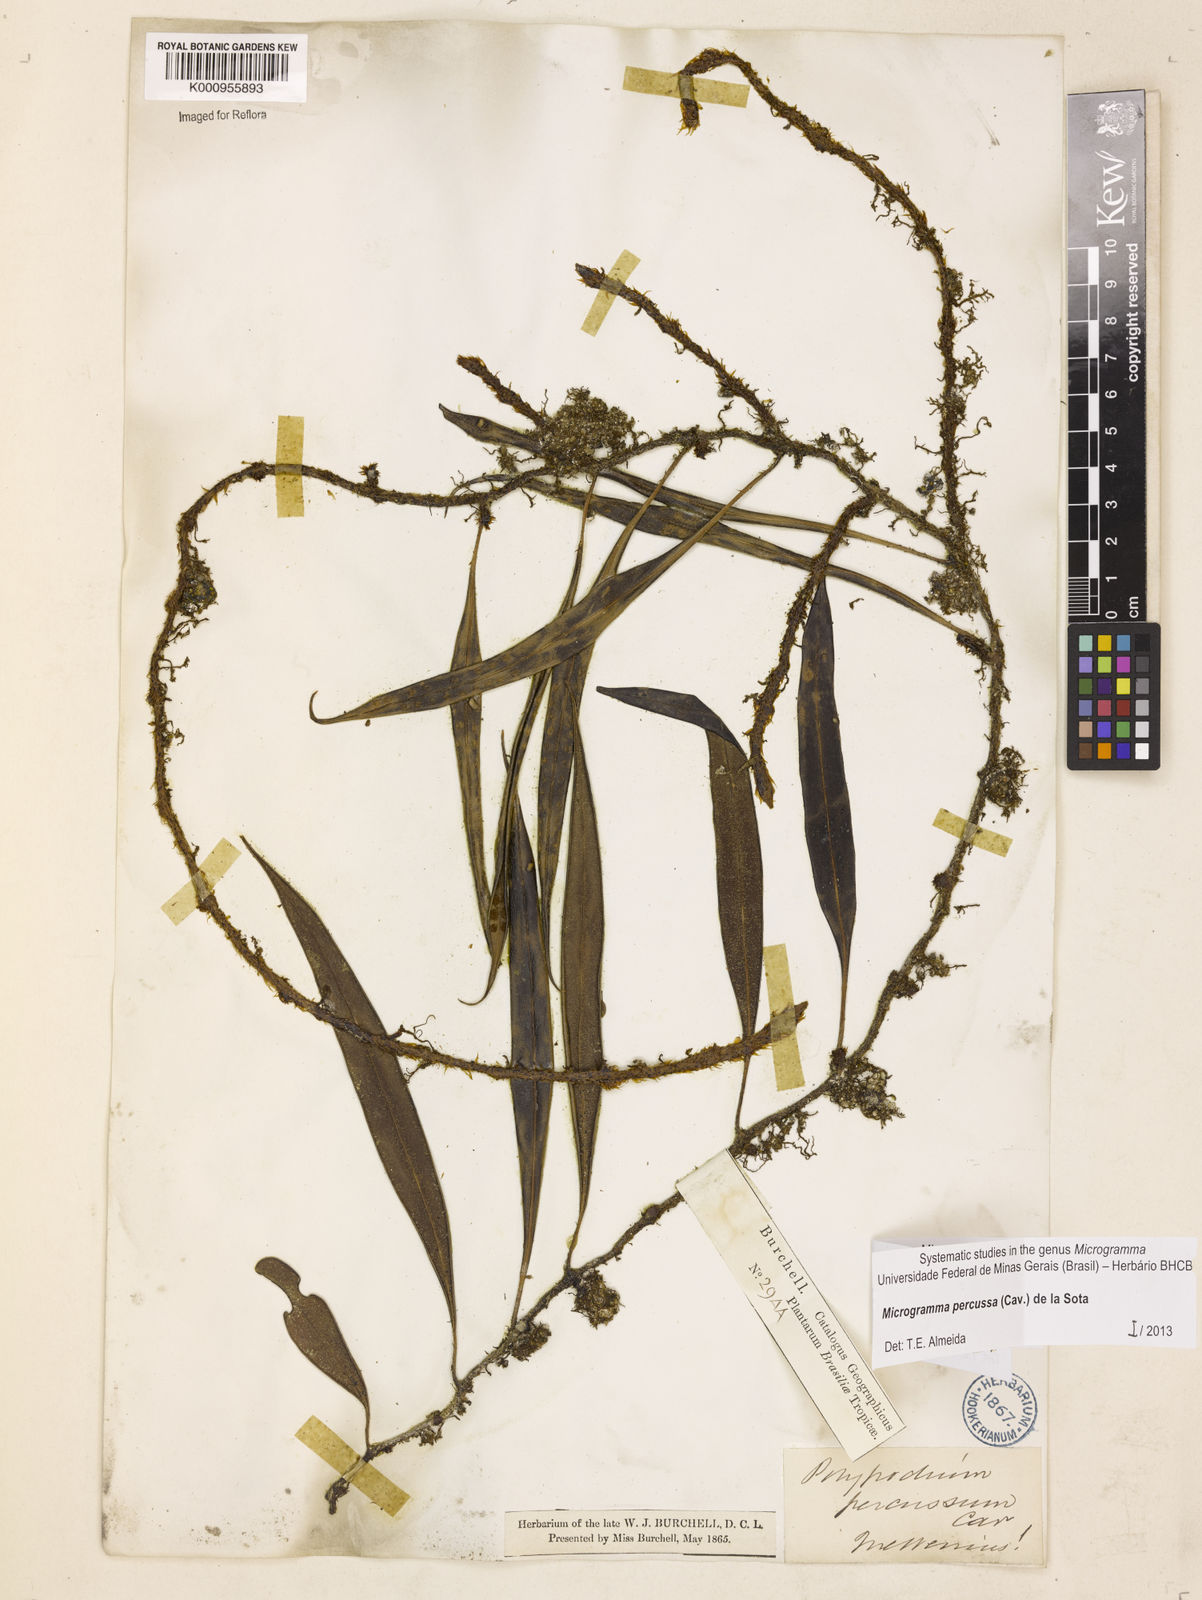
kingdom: Plantae
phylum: Tracheophyta
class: Polypodiopsida
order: Polypodiales
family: Polypodiaceae
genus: Microgramma
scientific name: Microgramma percussa
